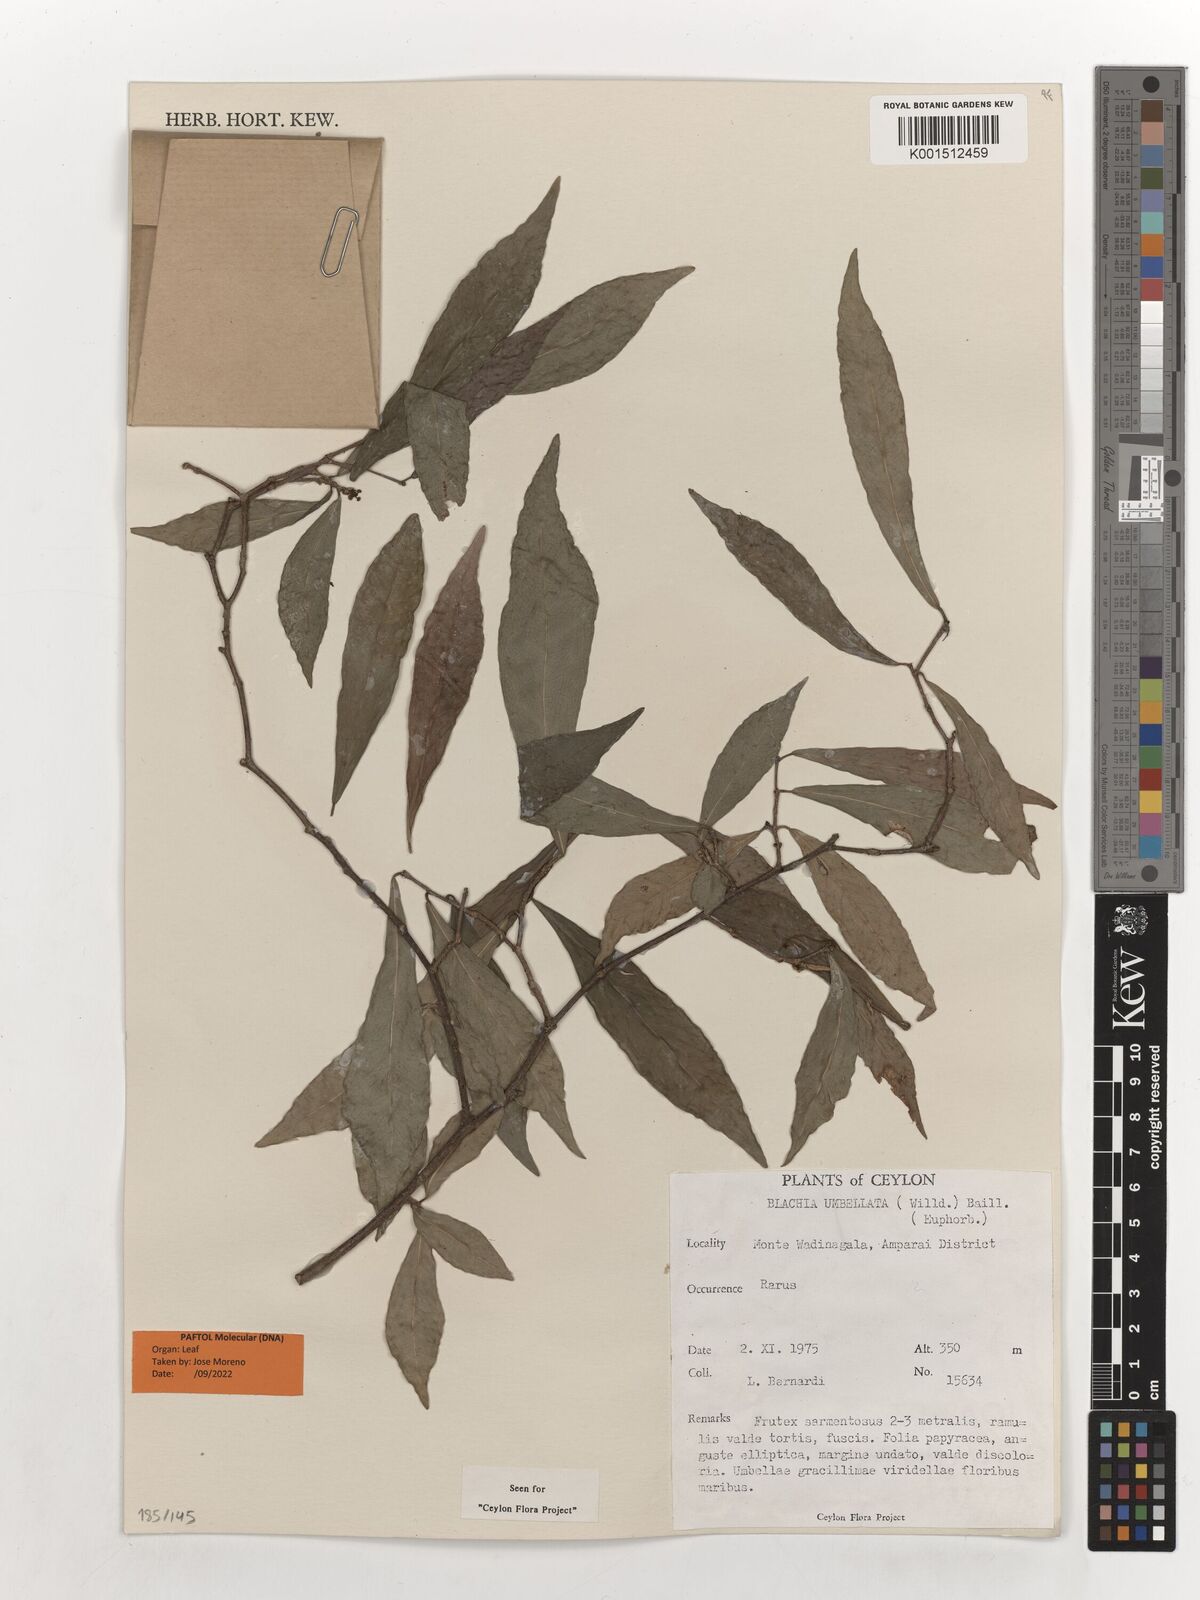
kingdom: Plantae
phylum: Tracheophyta
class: Magnoliopsida
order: Malpighiales
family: Euphorbiaceae
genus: Blachia
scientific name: Blachia umbellata
